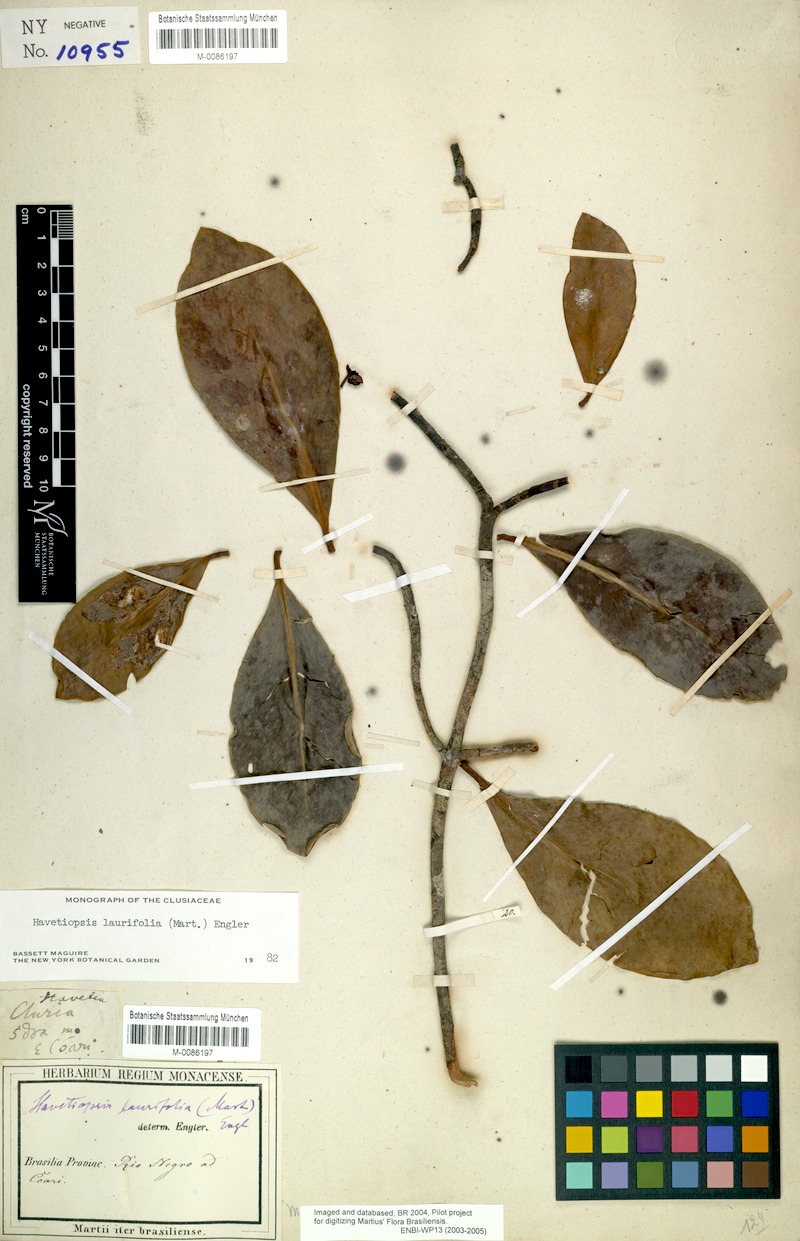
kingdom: Plantae
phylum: Tracheophyta
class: Magnoliopsida
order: Malpighiales
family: Clusiaceae
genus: Clusia
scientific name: Clusia flavida
